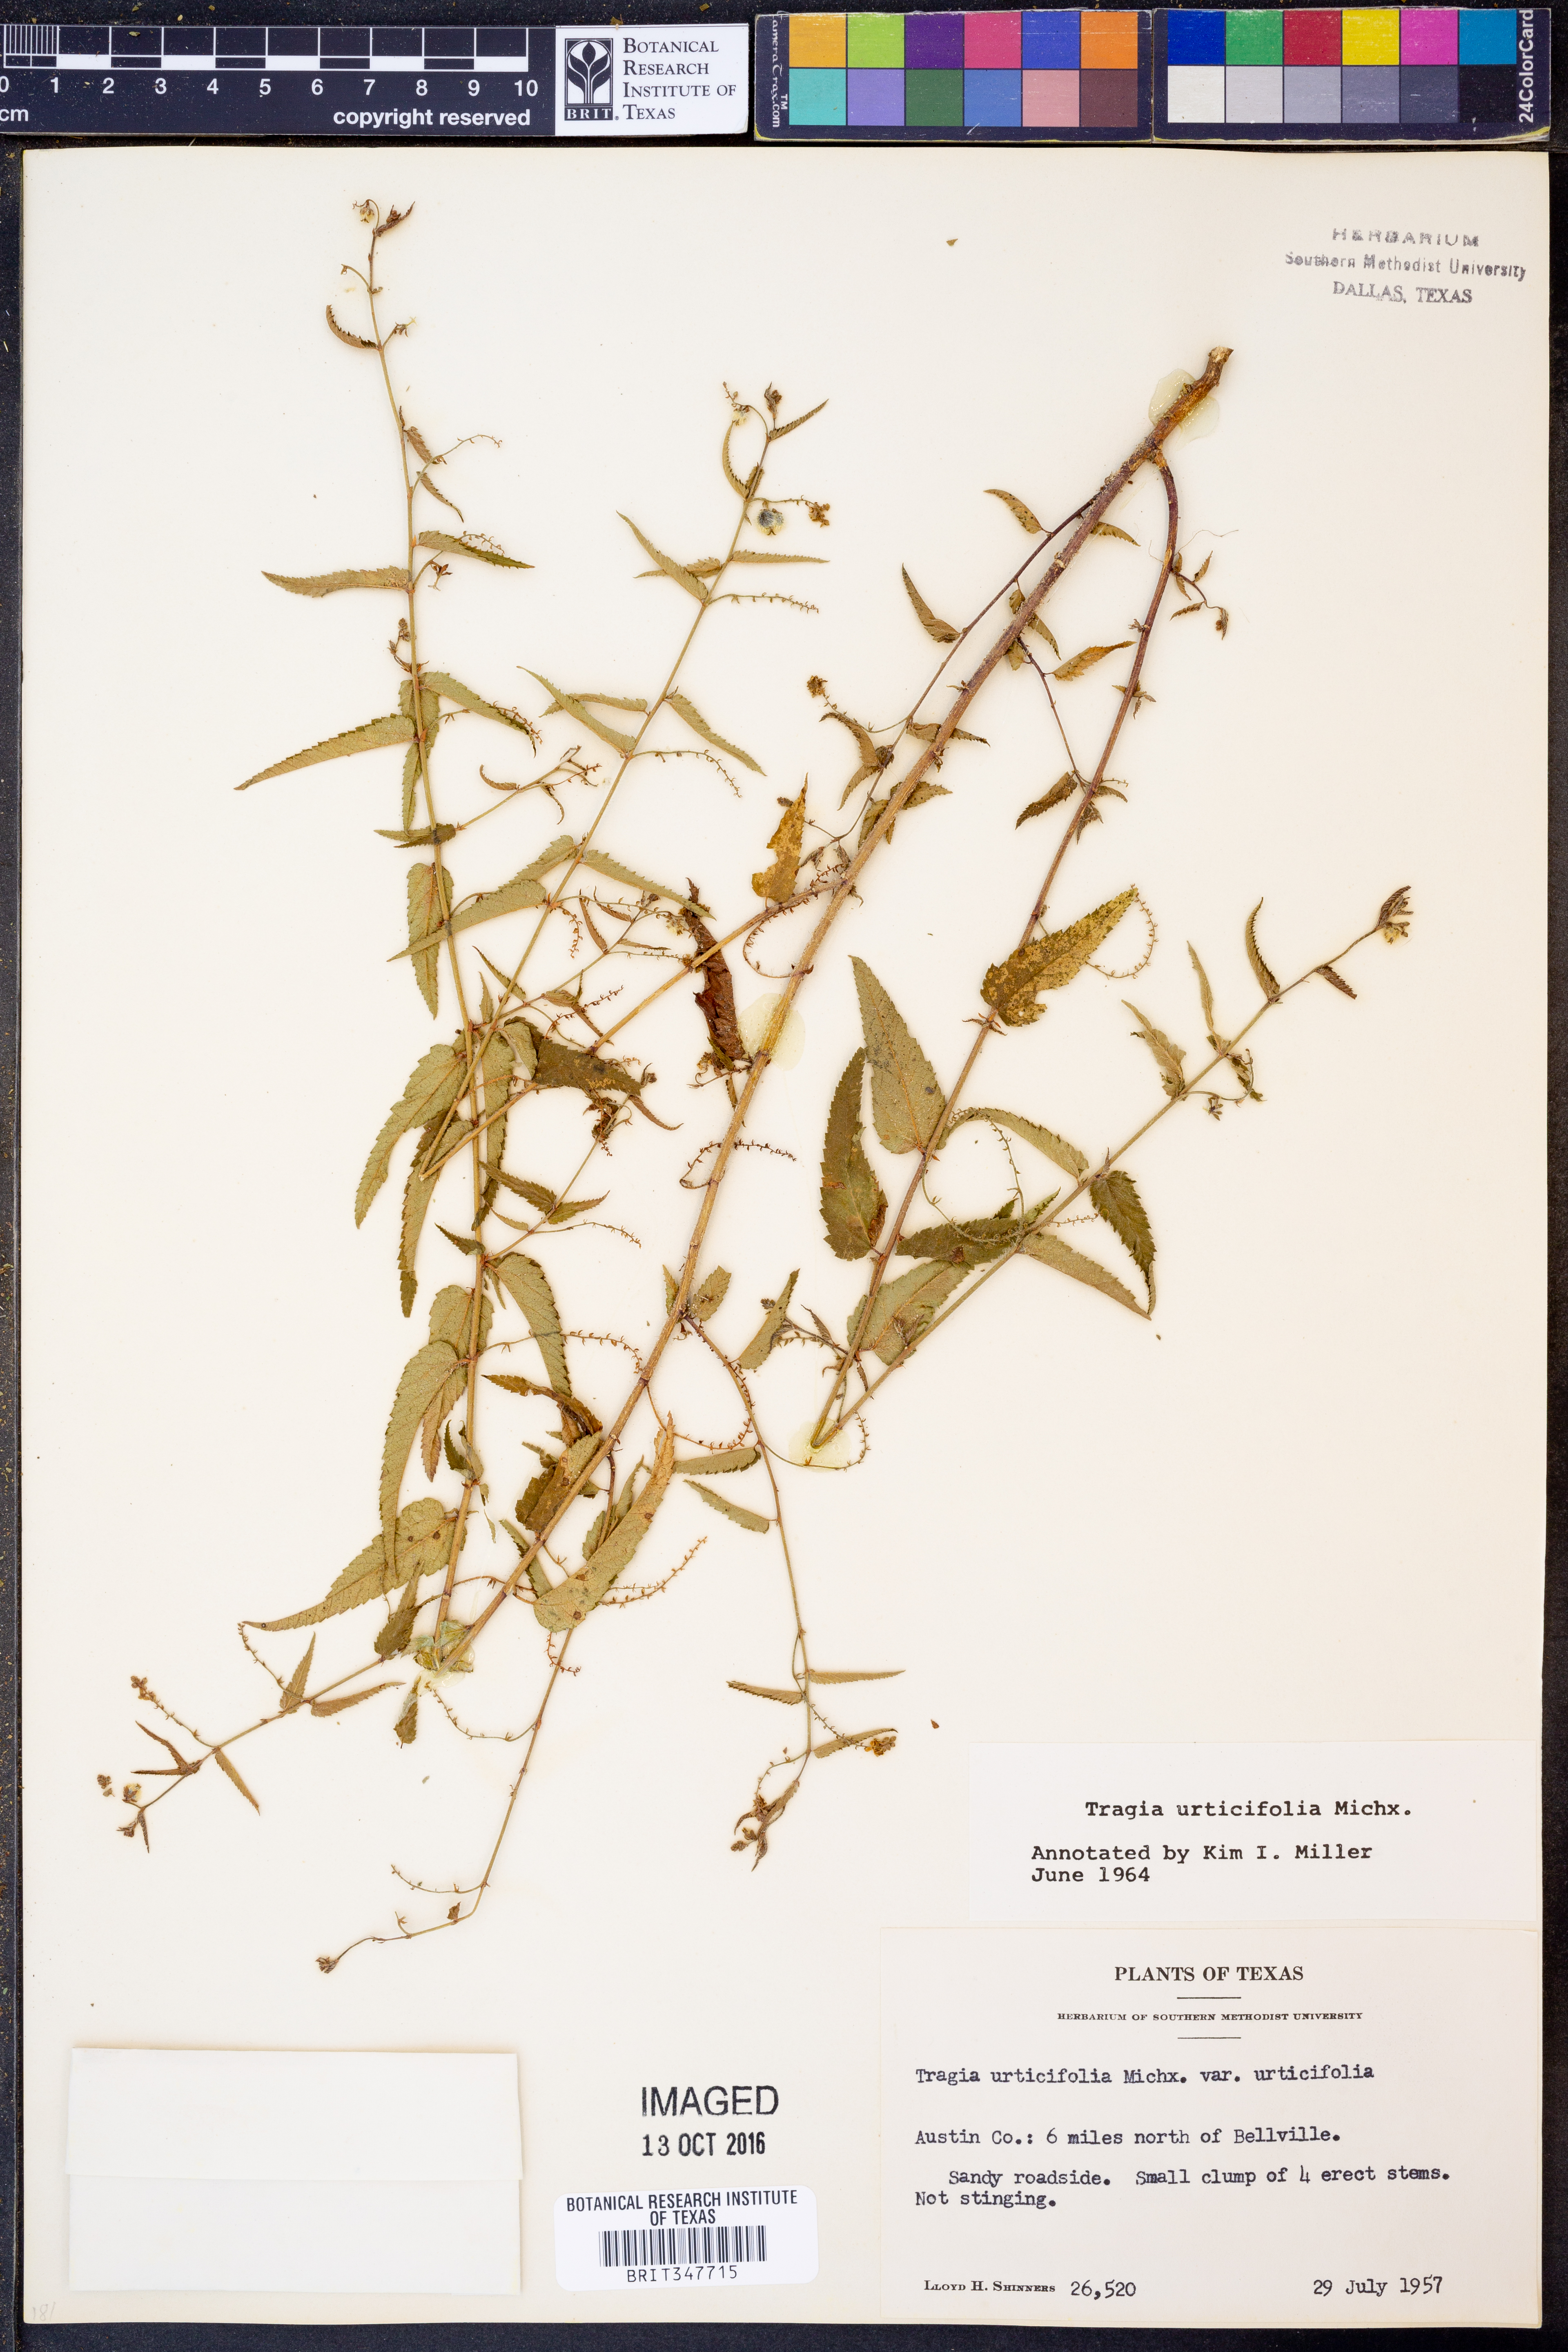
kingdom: Plantae
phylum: Tracheophyta
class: Magnoliopsida
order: Malpighiales
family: Euphorbiaceae
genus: Tragia
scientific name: Tragia urticifolia
